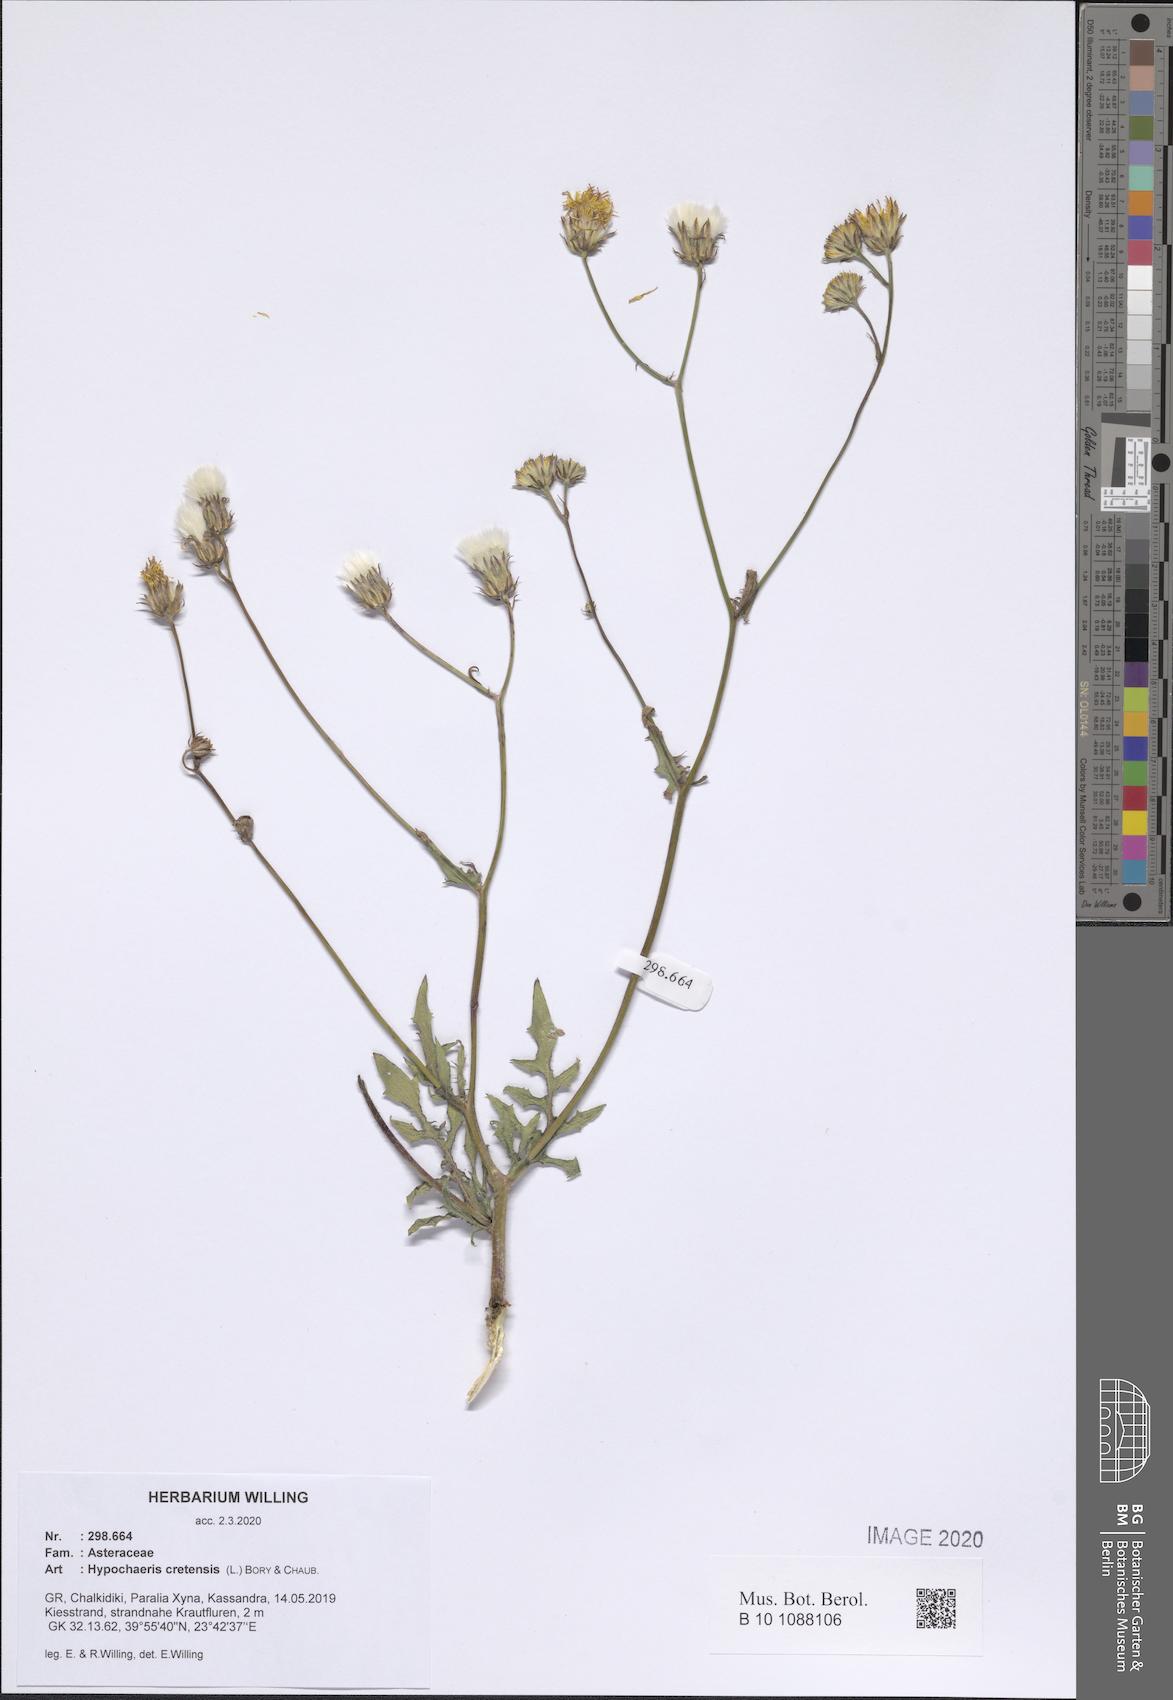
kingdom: Plantae
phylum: Tracheophyta
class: Magnoliopsida
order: Asterales
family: Asteraceae
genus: Hypochaeris
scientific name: Hypochaeris cretensis
